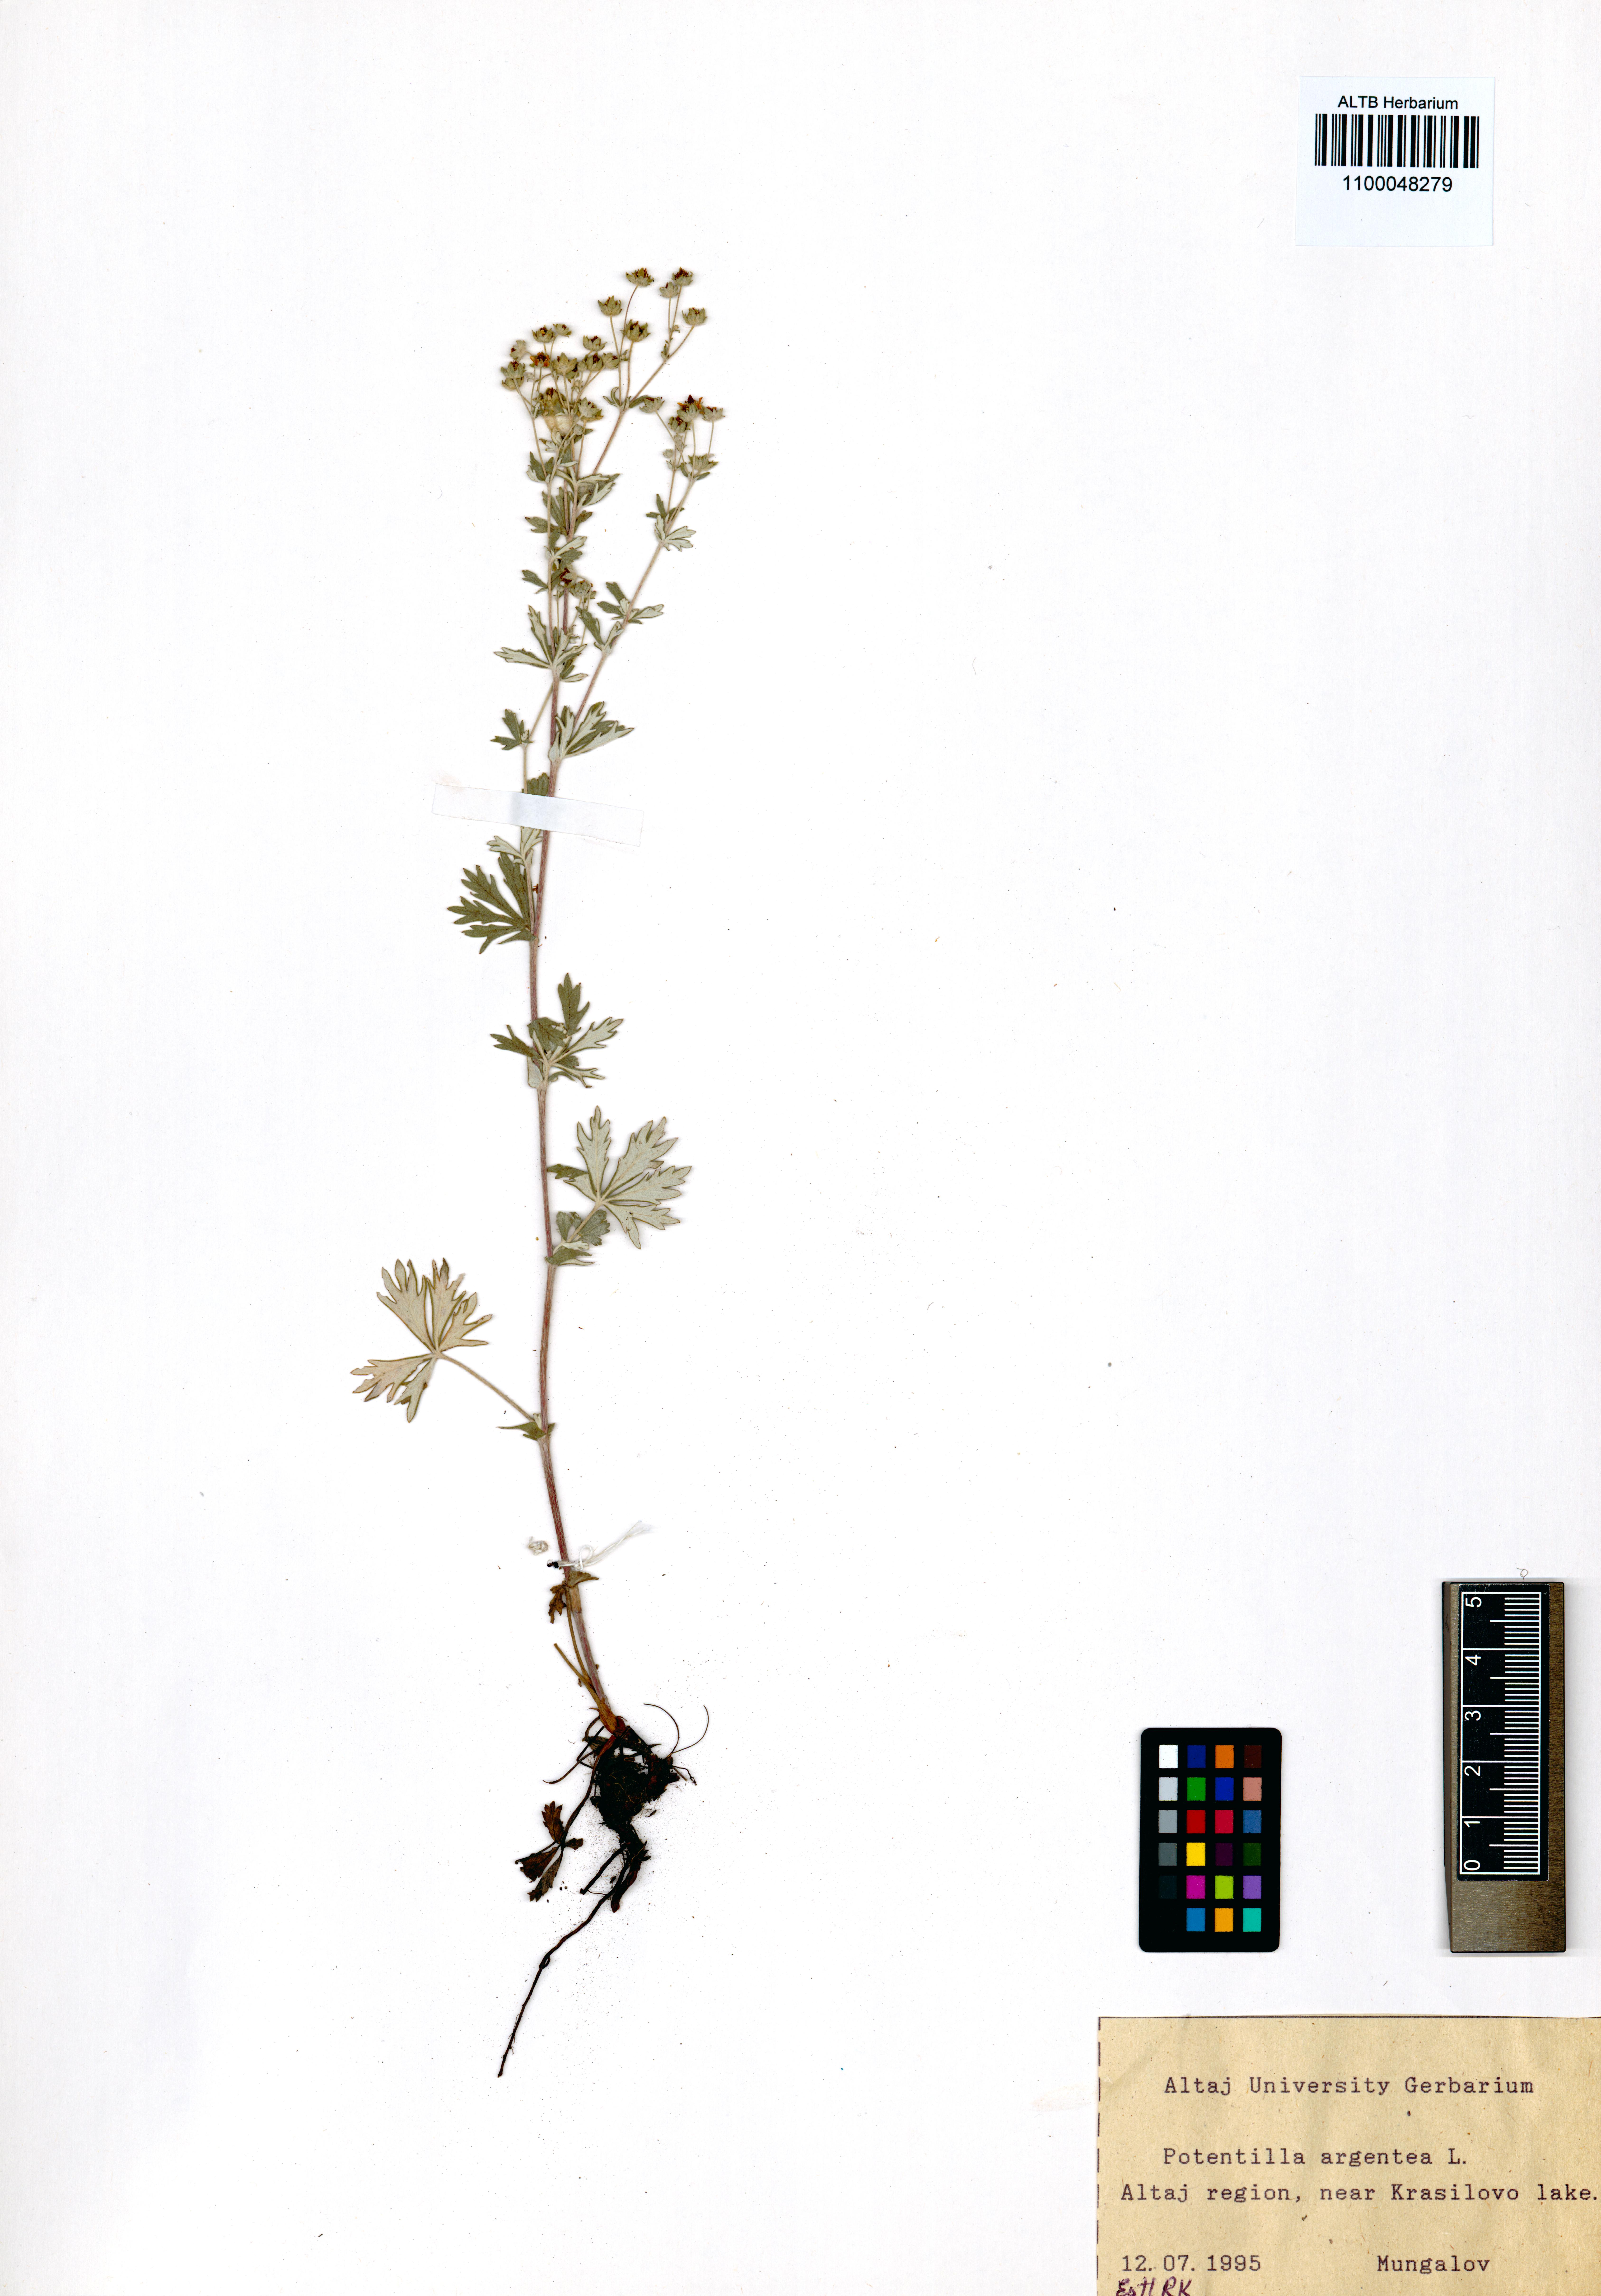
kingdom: Plantae
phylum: Tracheophyta
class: Magnoliopsida
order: Rosales
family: Rosaceae
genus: Potentilla
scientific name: Potentilla argentea
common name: Hoary cinquefoil
